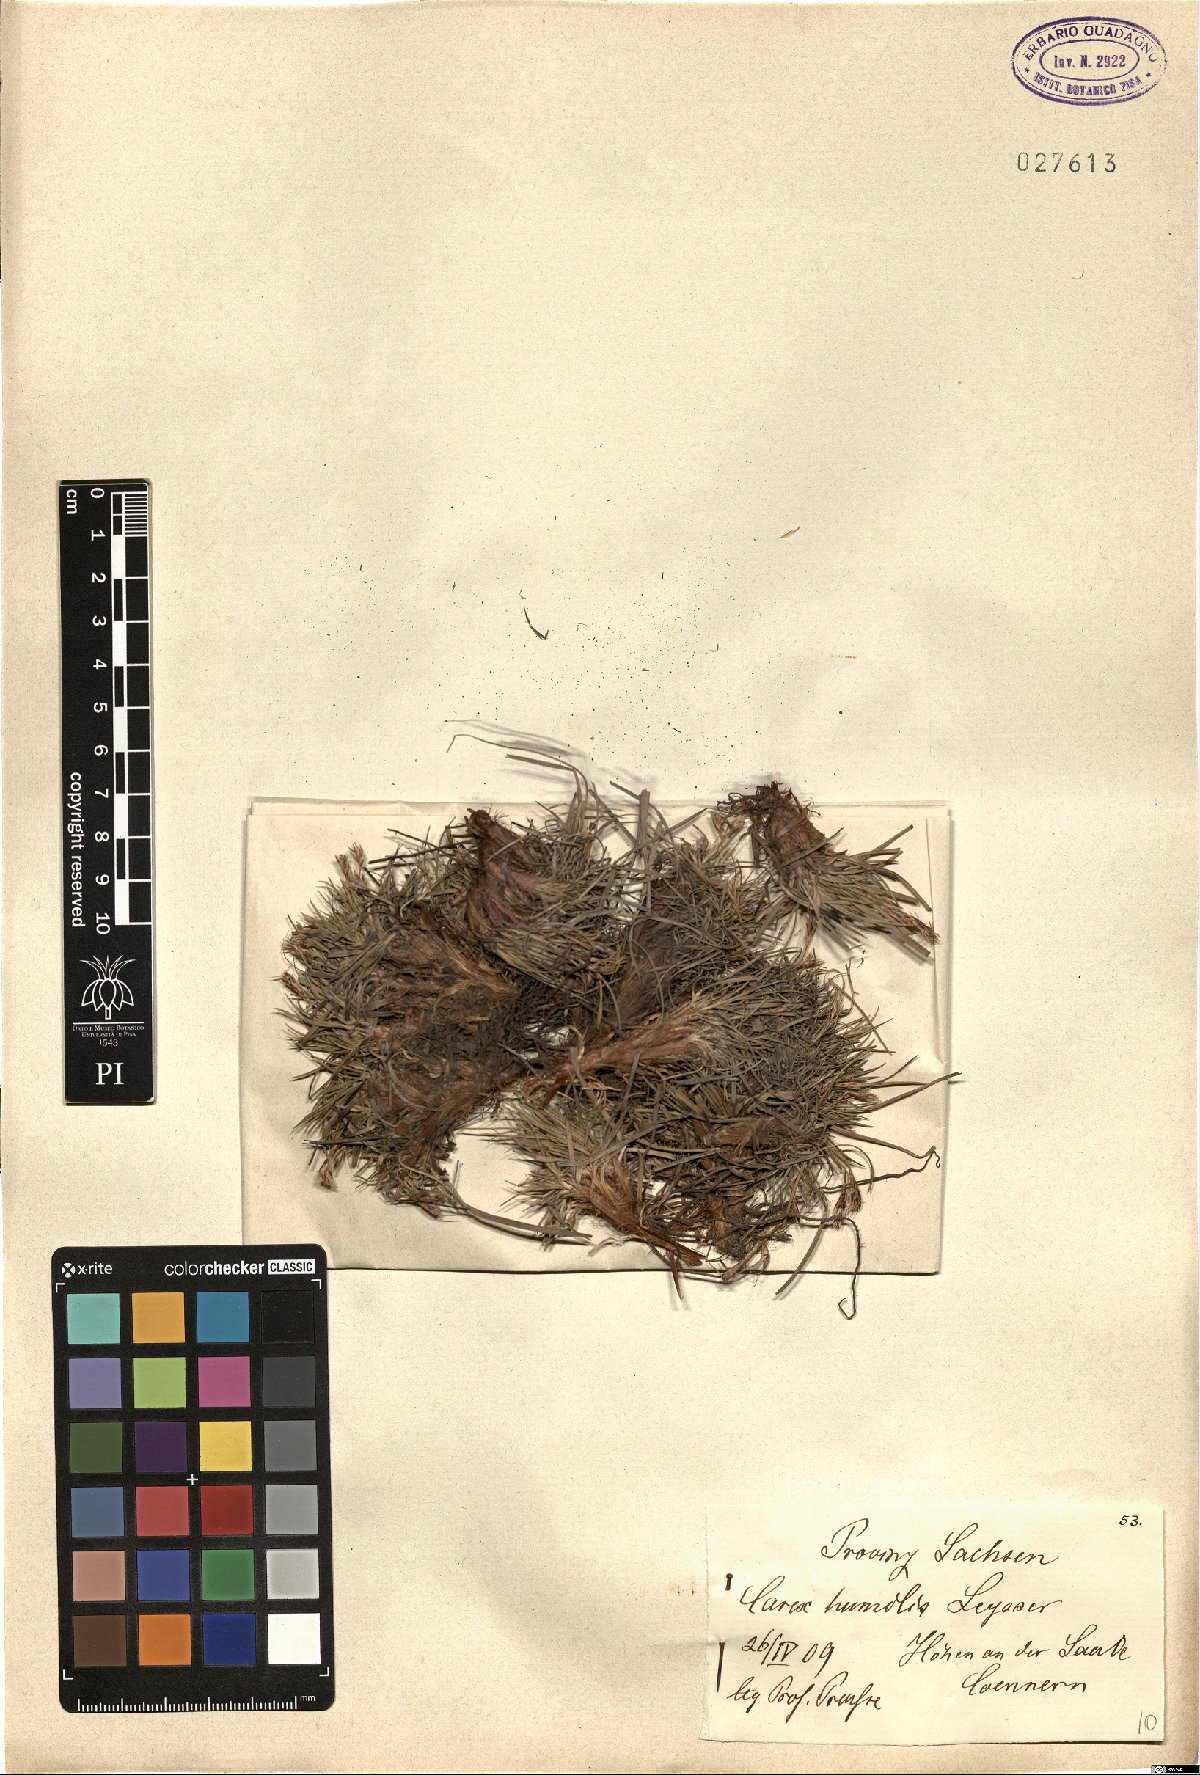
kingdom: Plantae
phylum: Tracheophyta
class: Liliopsida
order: Poales
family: Cyperaceae
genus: Carex
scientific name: Carex humilis
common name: Dwarf sedge
